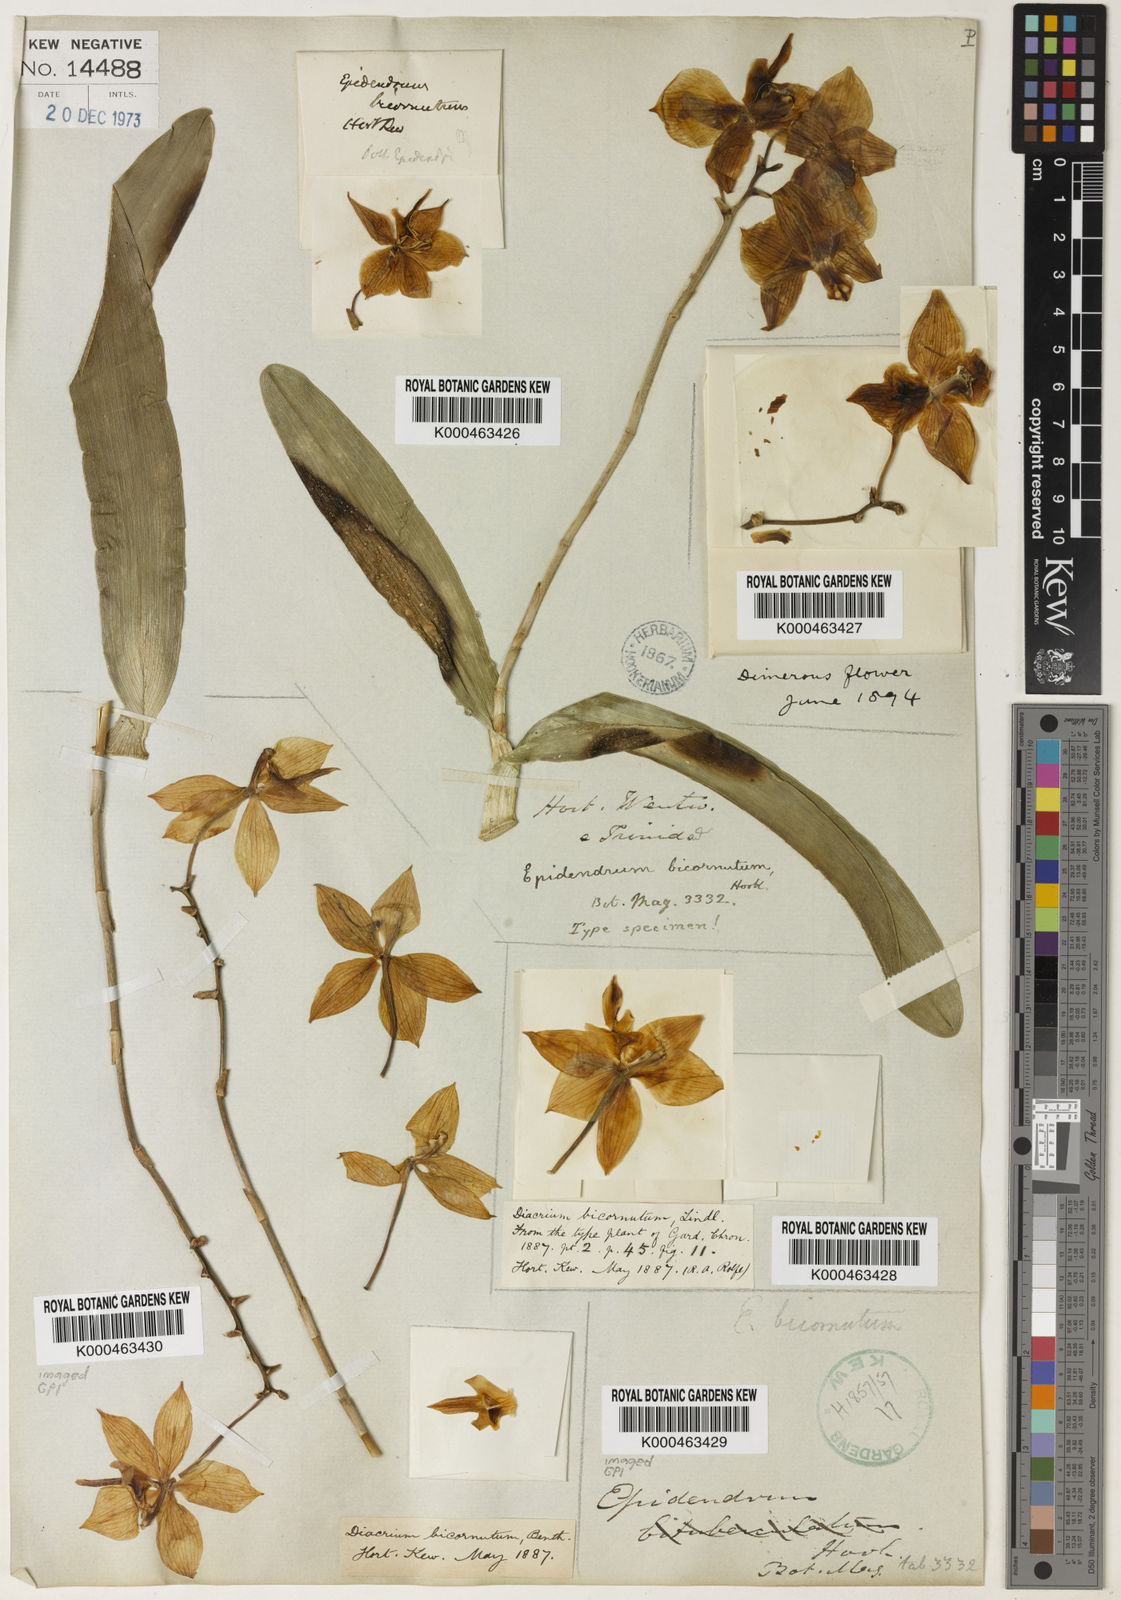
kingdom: Plantae
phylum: Tracheophyta
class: Liliopsida
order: Asparagales
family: Orchidaceae
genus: Caularthron
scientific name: Caularthron bicornutum
